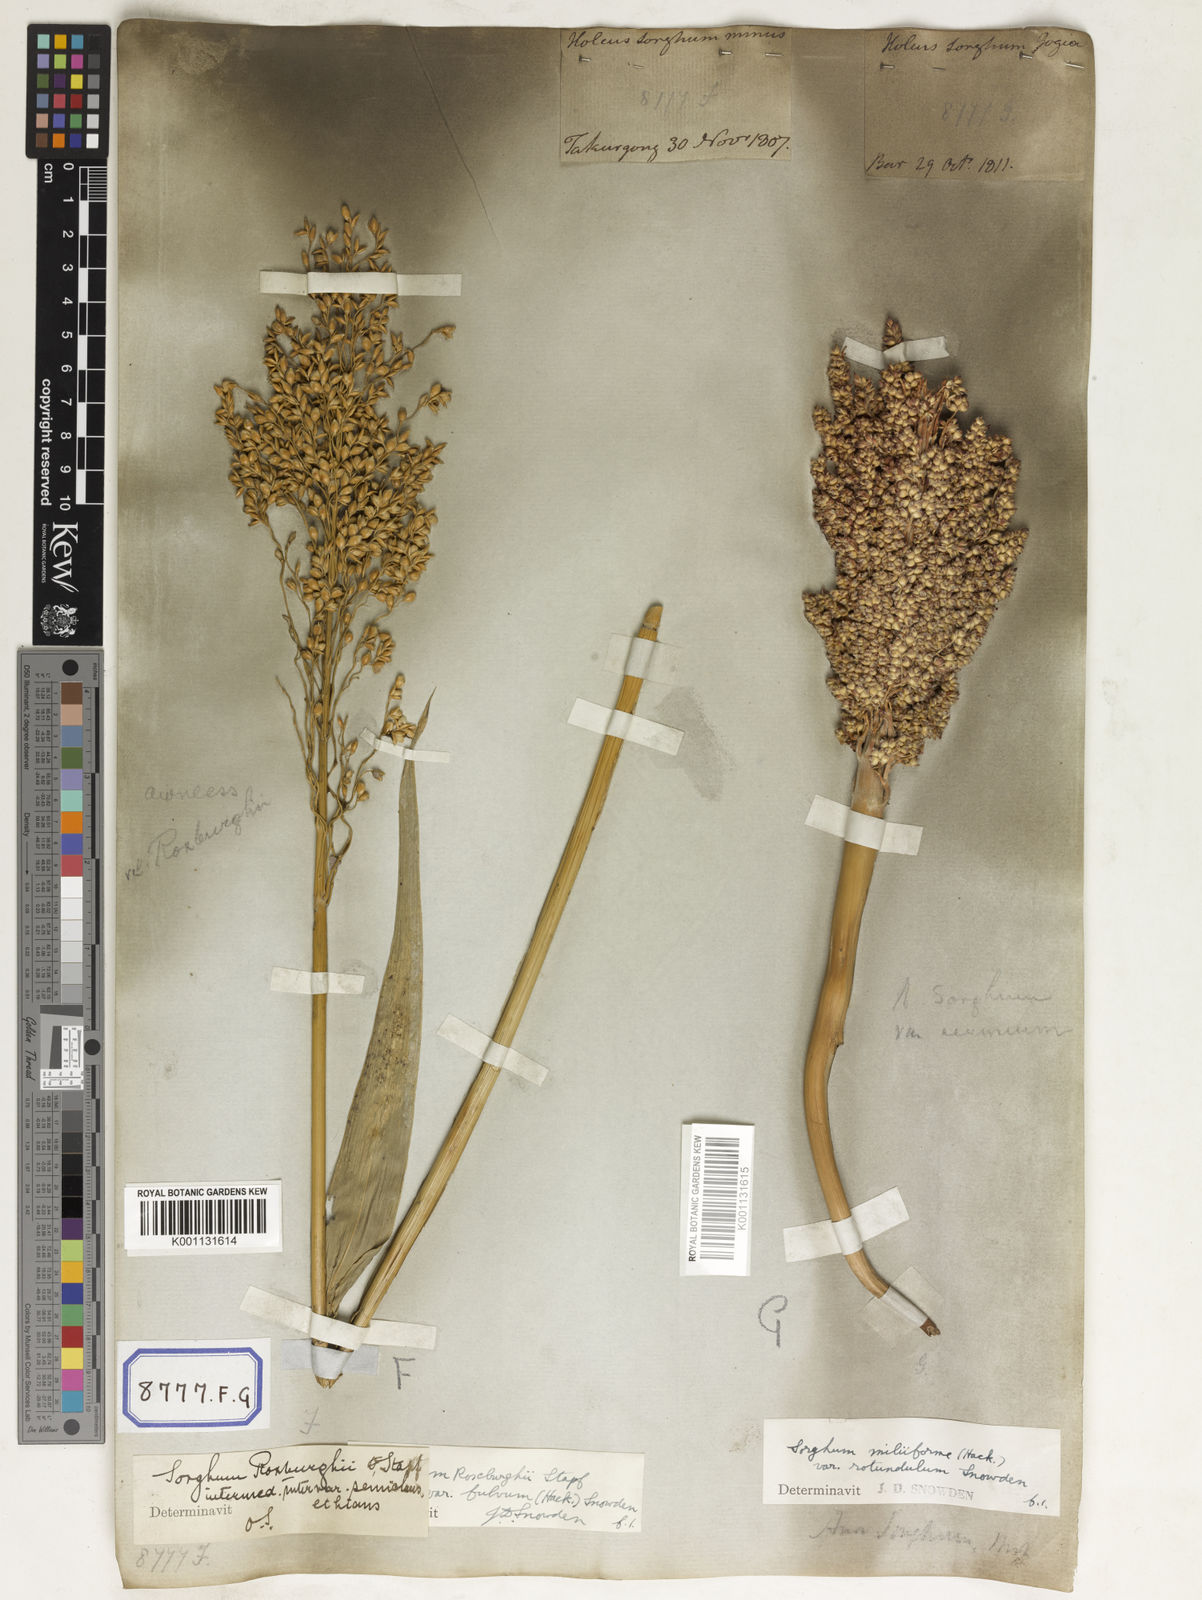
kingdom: Plantae
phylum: Tracheophyta
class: Liliopsida
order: Poales
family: Poaceae
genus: Sorghum
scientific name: Sorghum bicolor
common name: Sorghum
